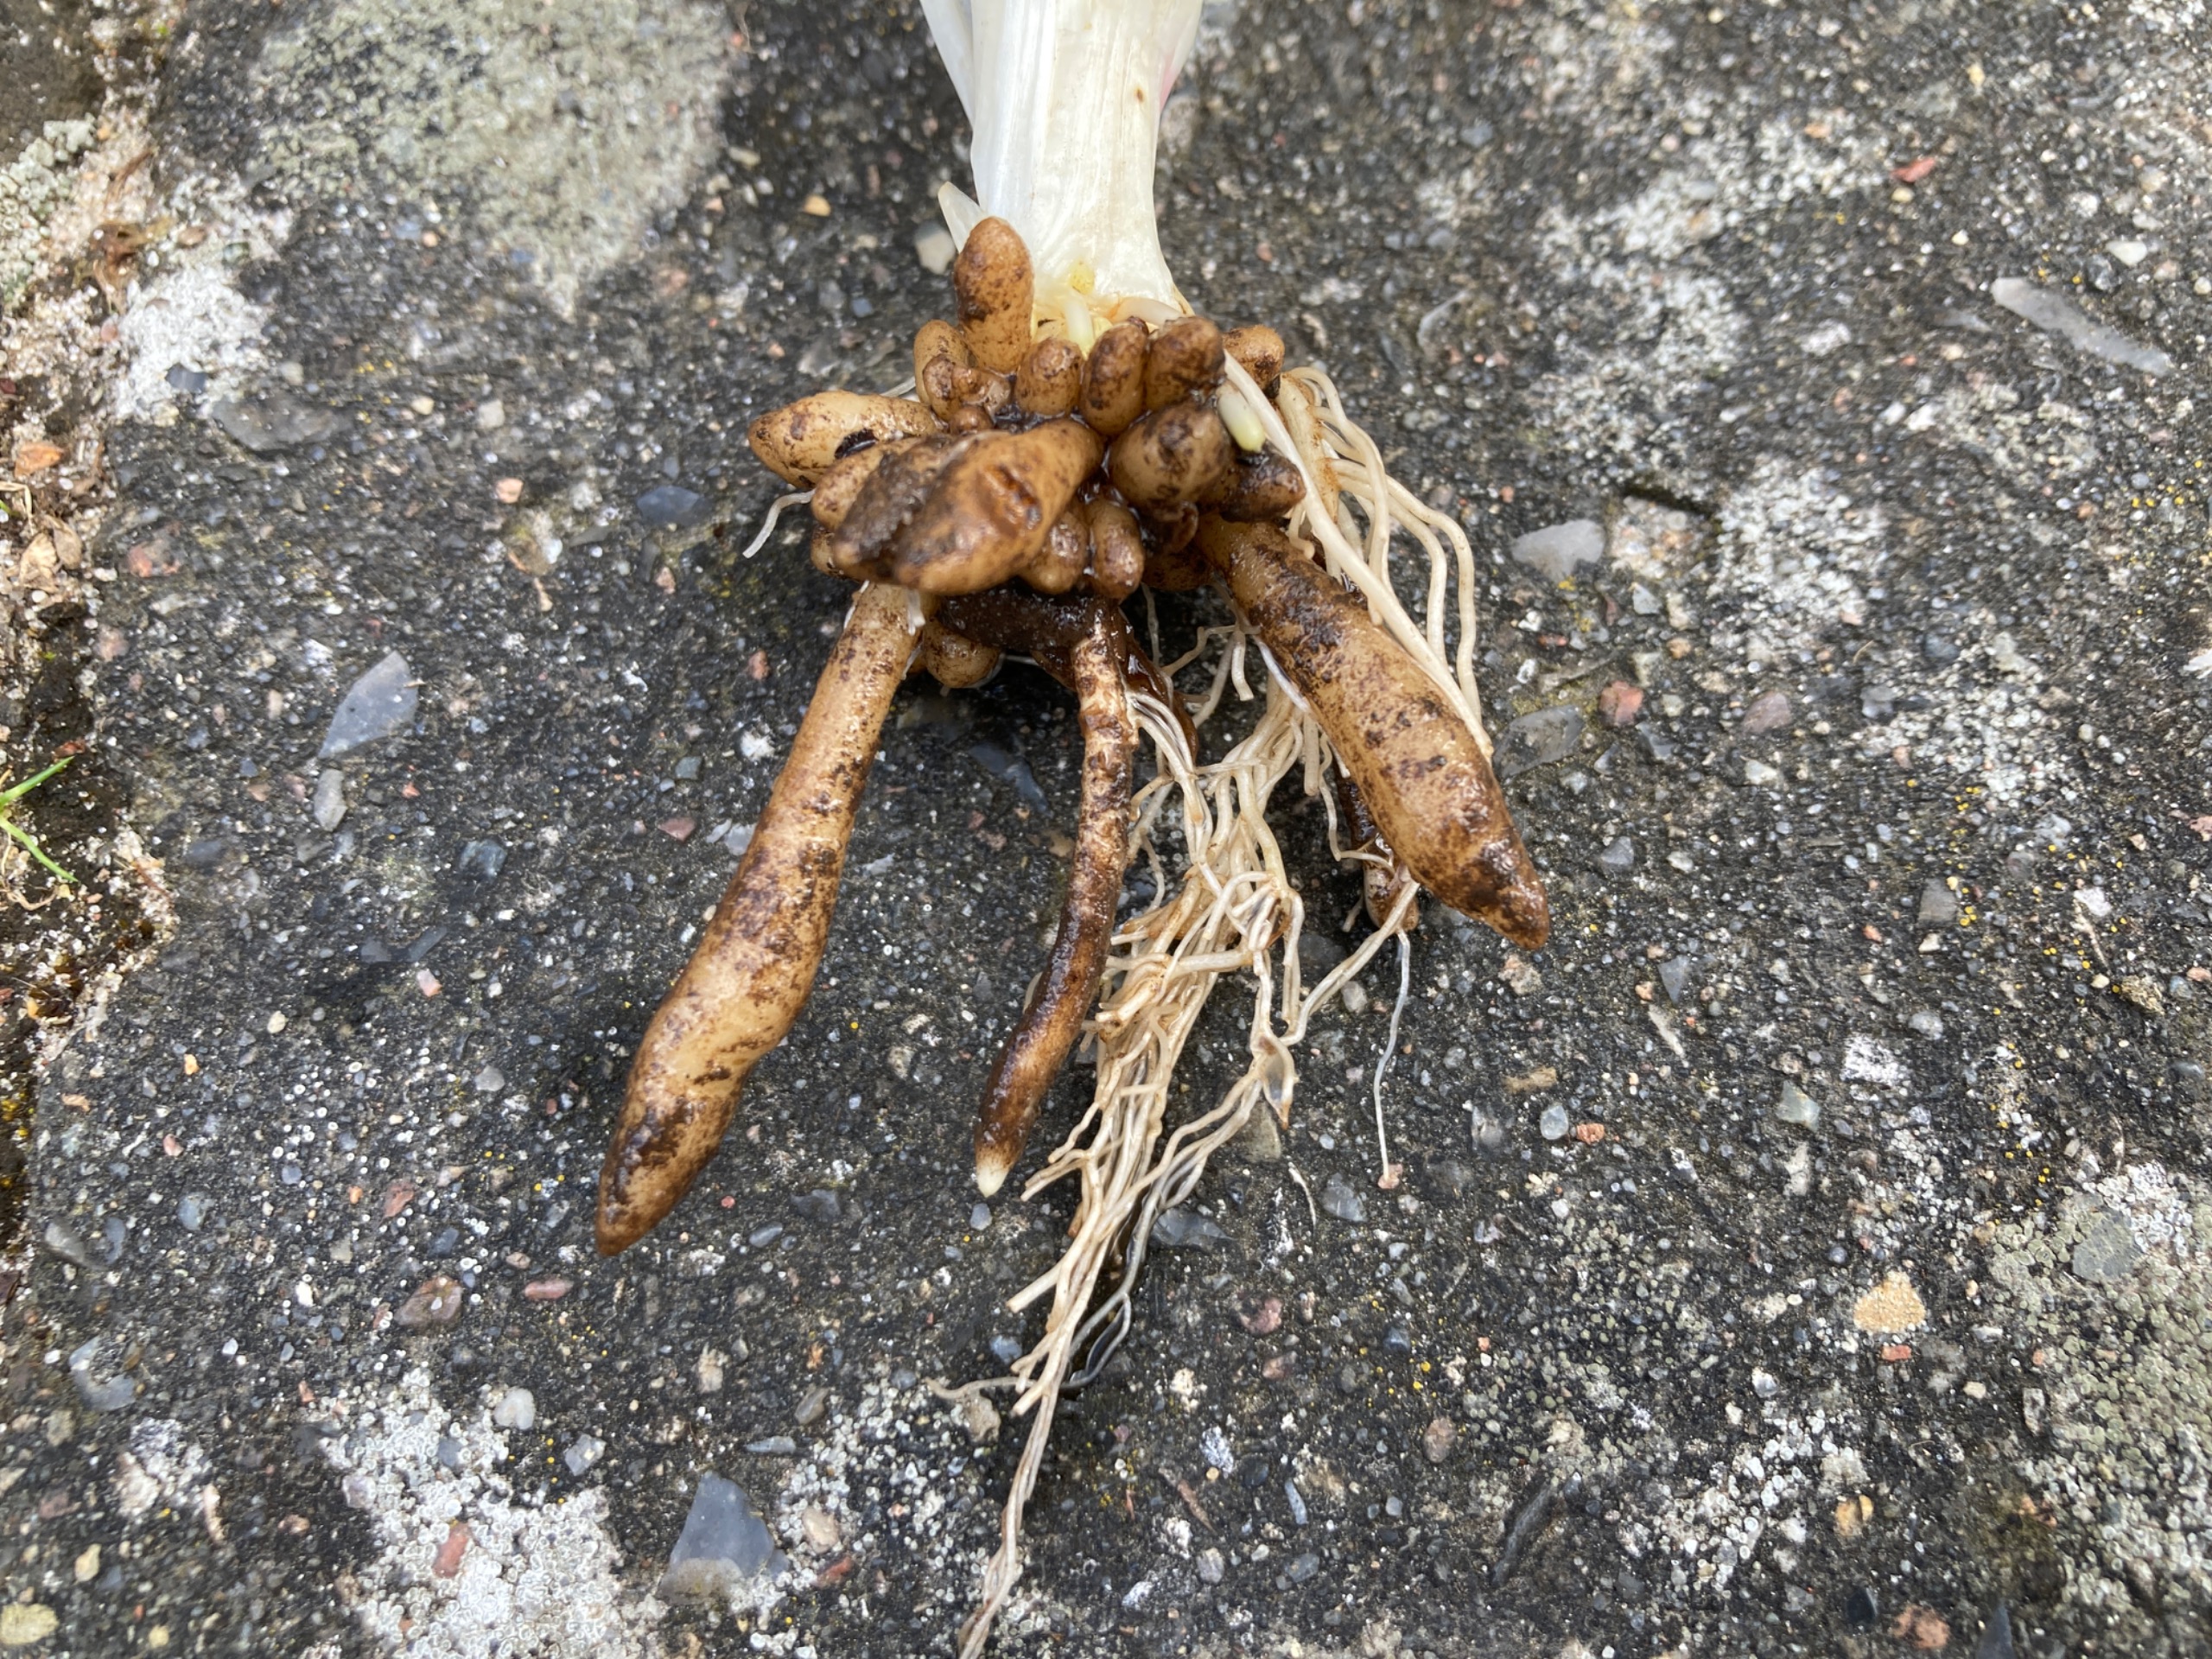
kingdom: Plantae
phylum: Tracheophyta
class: Magnoliopsida
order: Ranunculales
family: Ranunculaceae
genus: Ficaria
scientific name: Ficaria verna
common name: Vorterod
